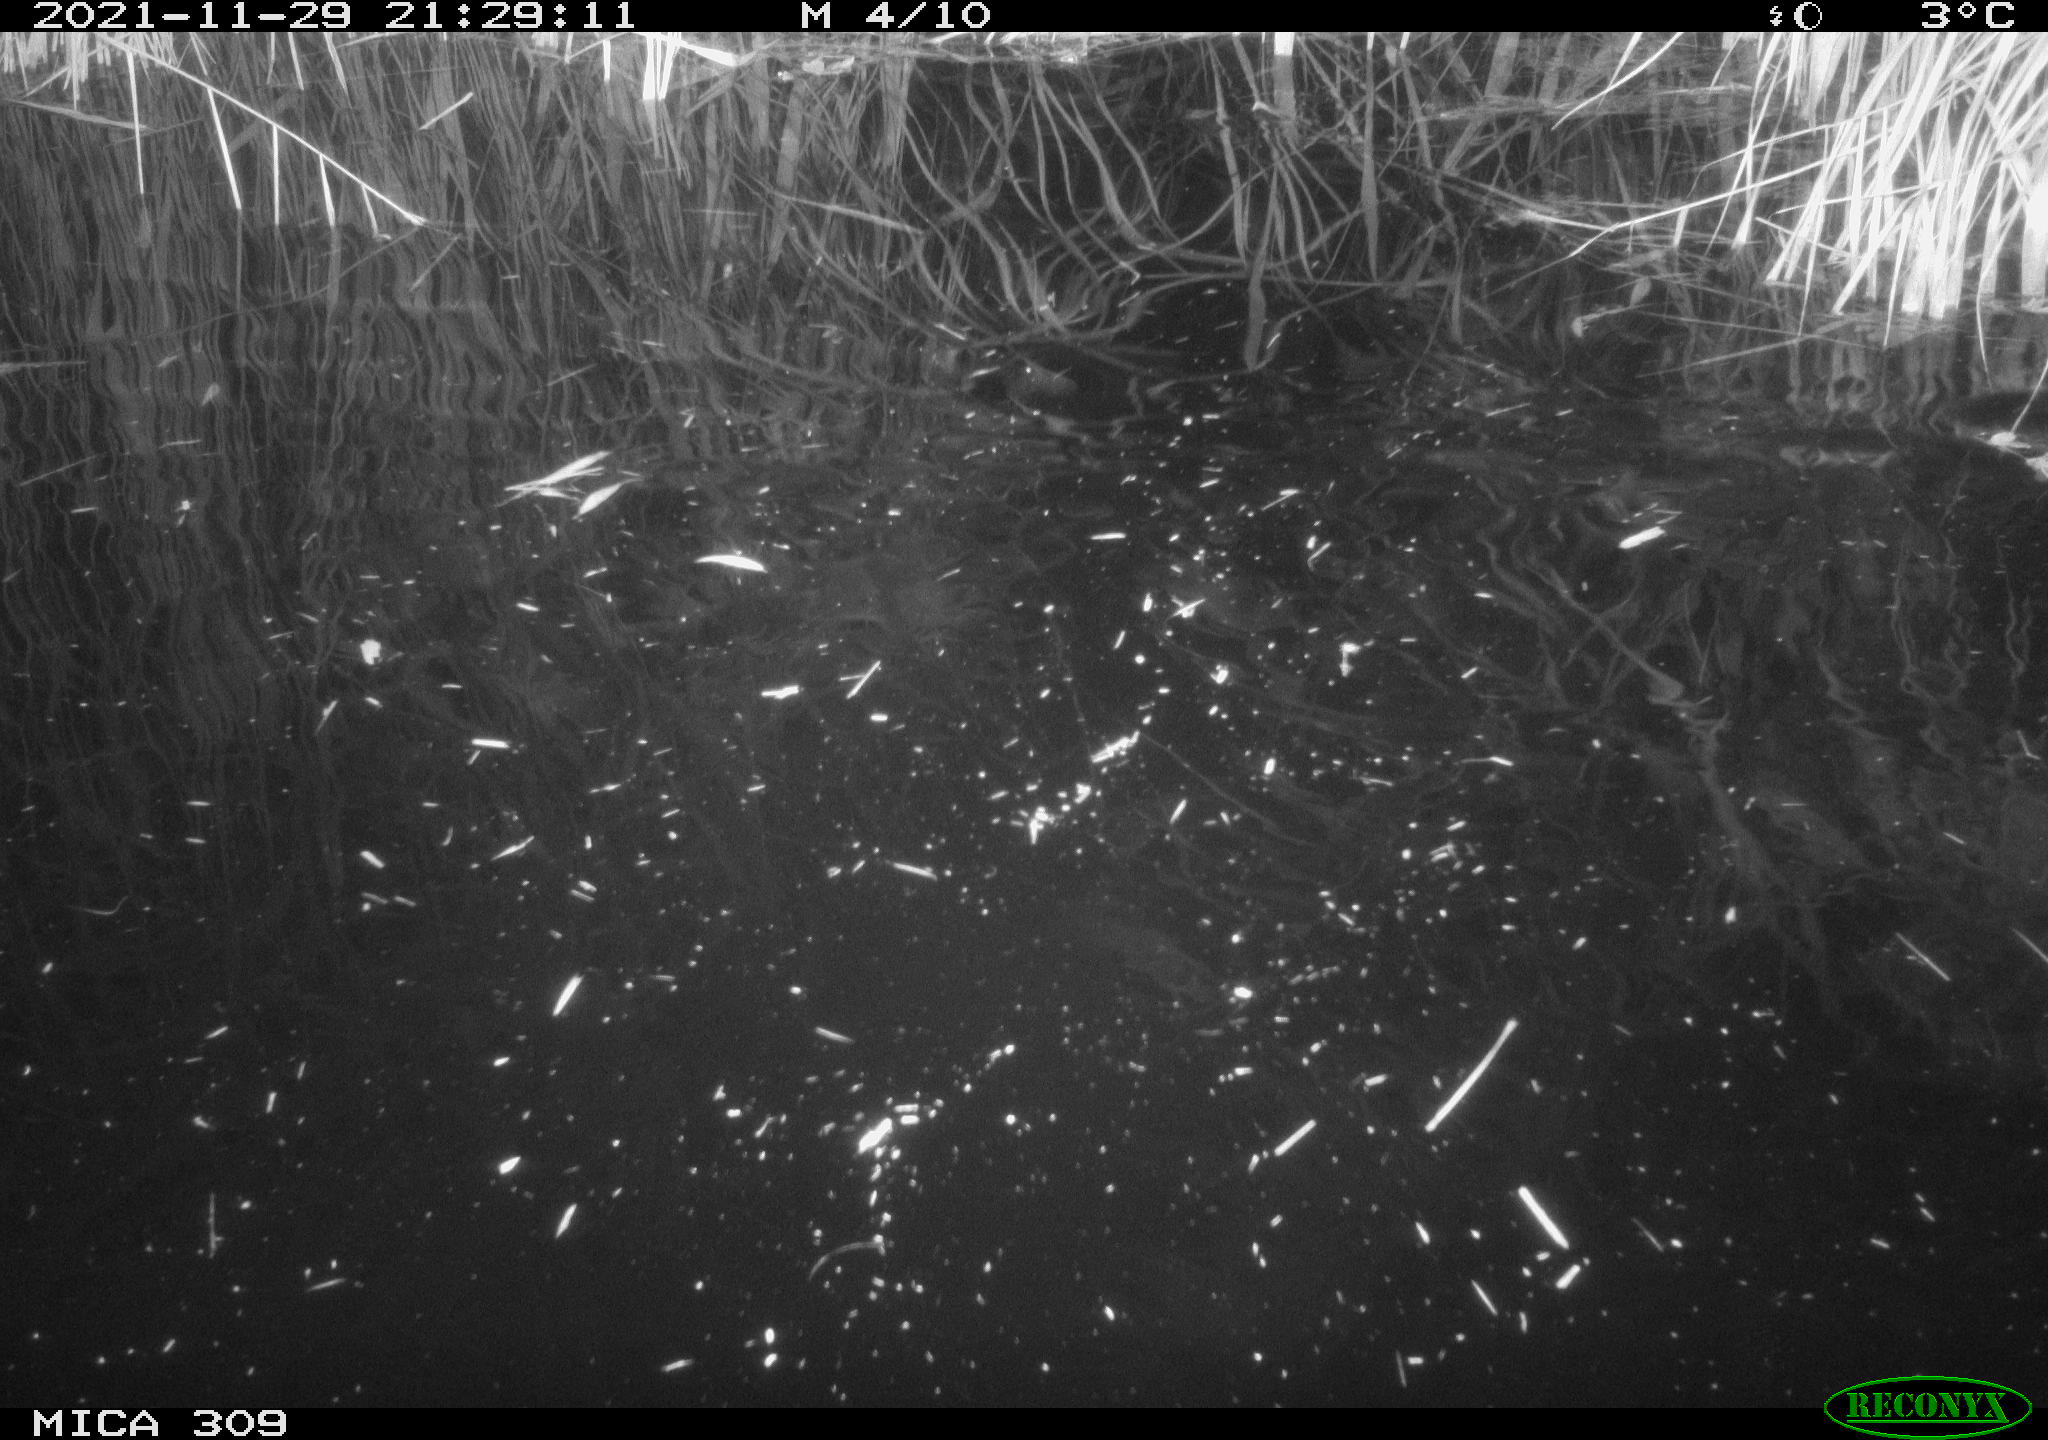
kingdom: Animalia
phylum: Chordata
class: Mammalia
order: Rodentia
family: Muridae
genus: Rattus
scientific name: Rattus norvegicus
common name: Brown rat
